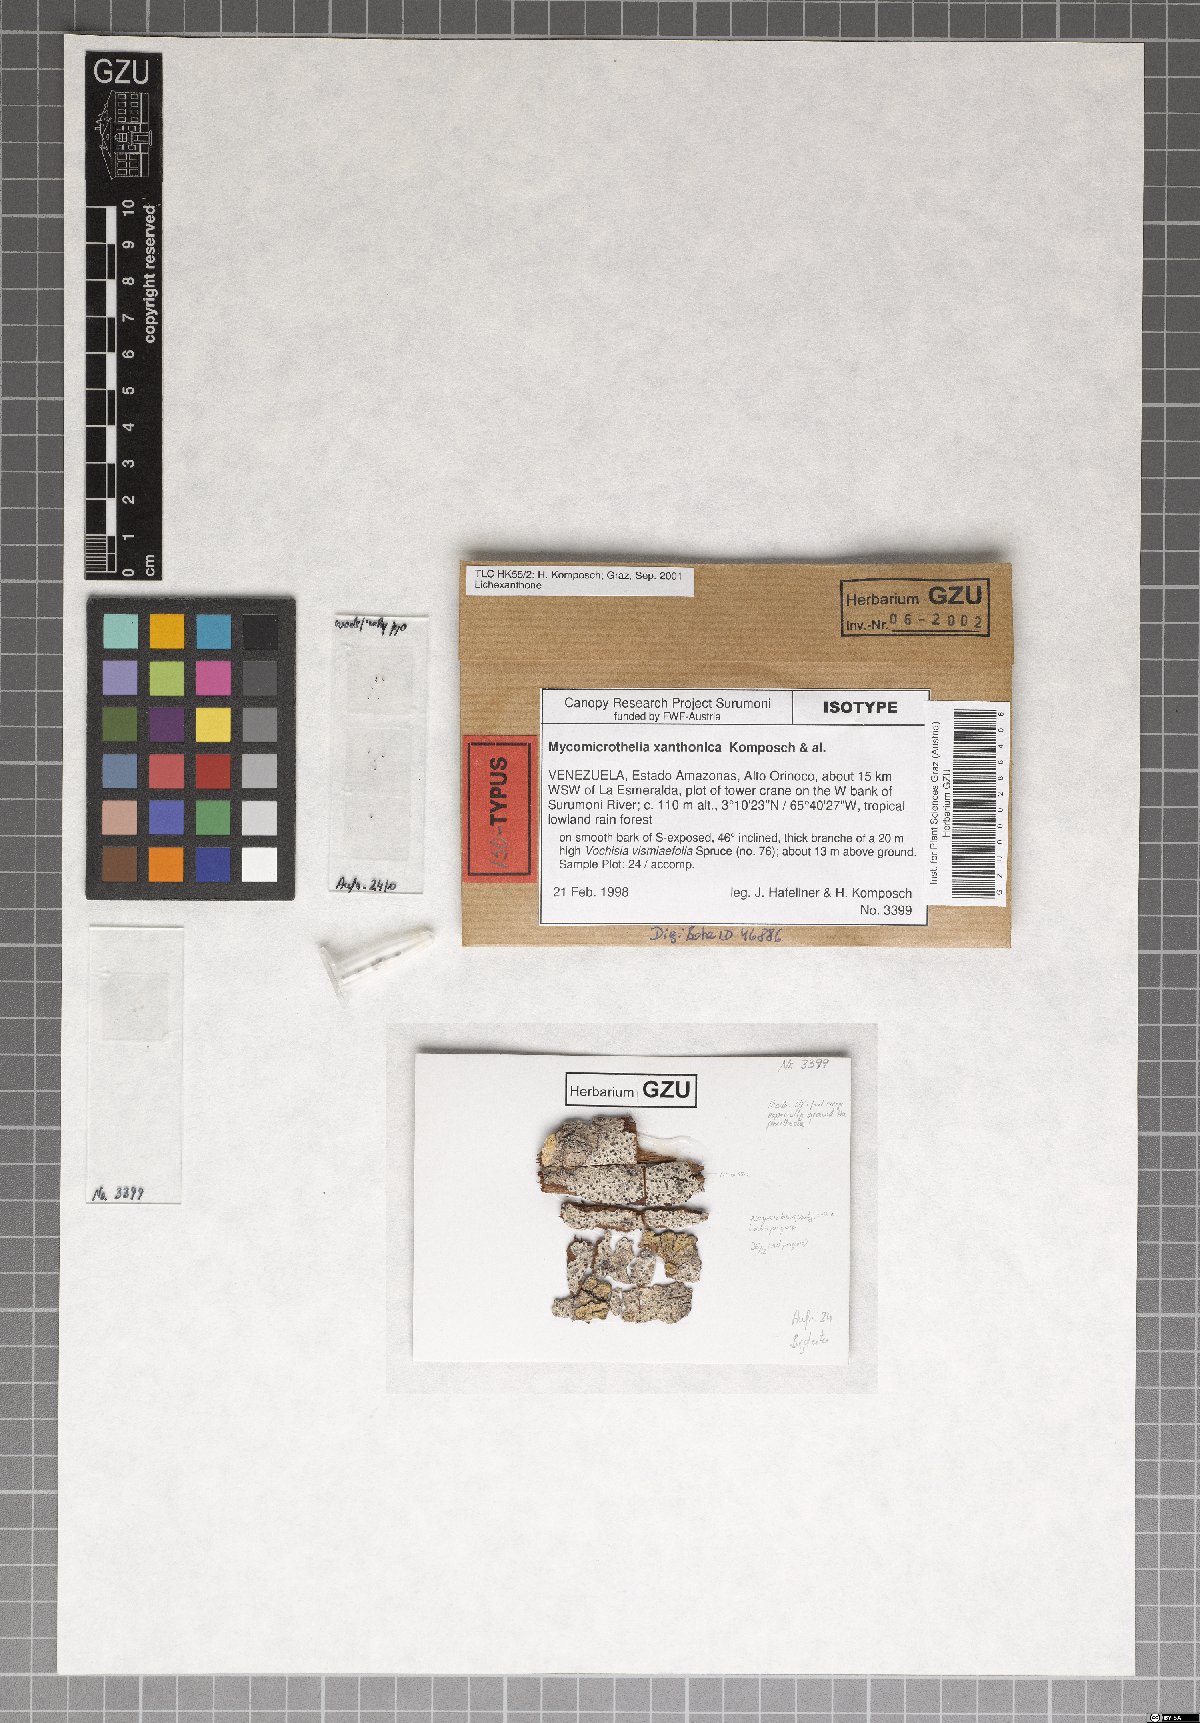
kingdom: Fungi
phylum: Ascomycota
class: Dothideomycetes
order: Trypetheliales
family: Trypetheliaceae
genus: Bogoriella
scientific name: Bogoriella xanthonica
